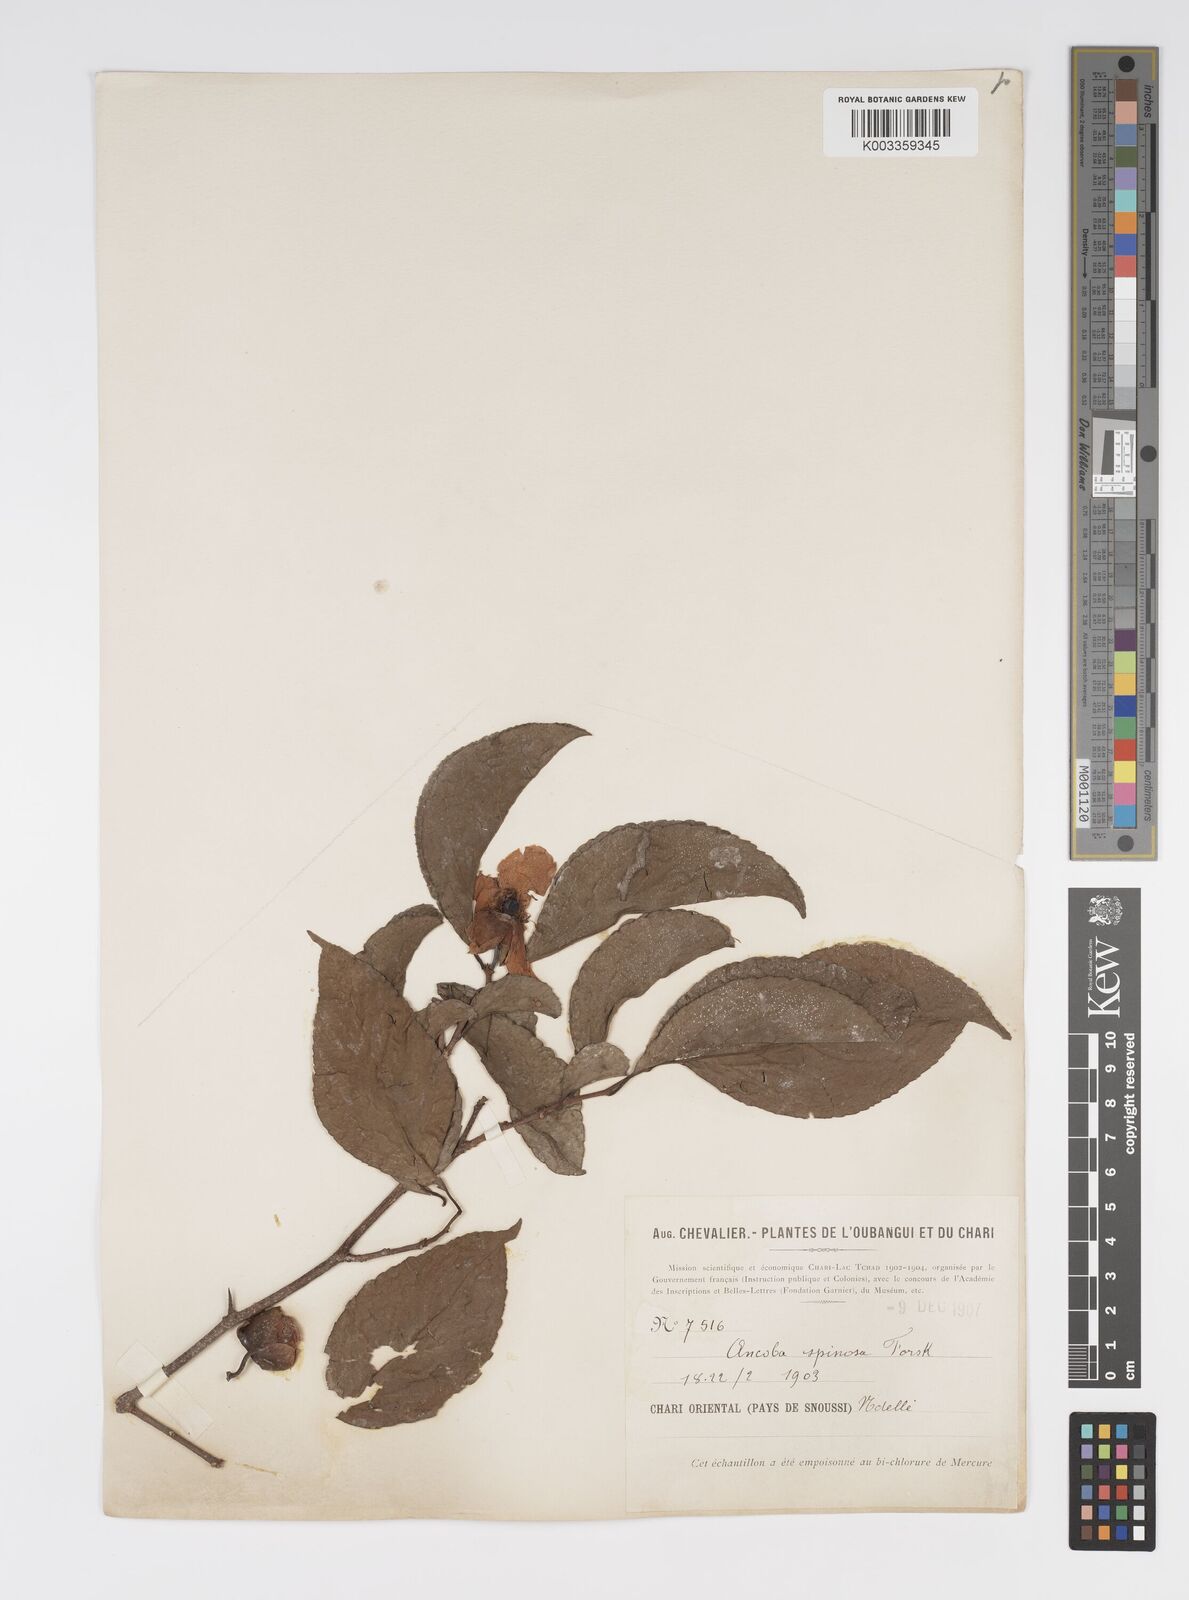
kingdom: Plantae
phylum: Tracheophyta
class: Magnoliopsida
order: Malpighiales
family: Salicaceae
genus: Oncoba
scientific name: Oncoba spinosa
